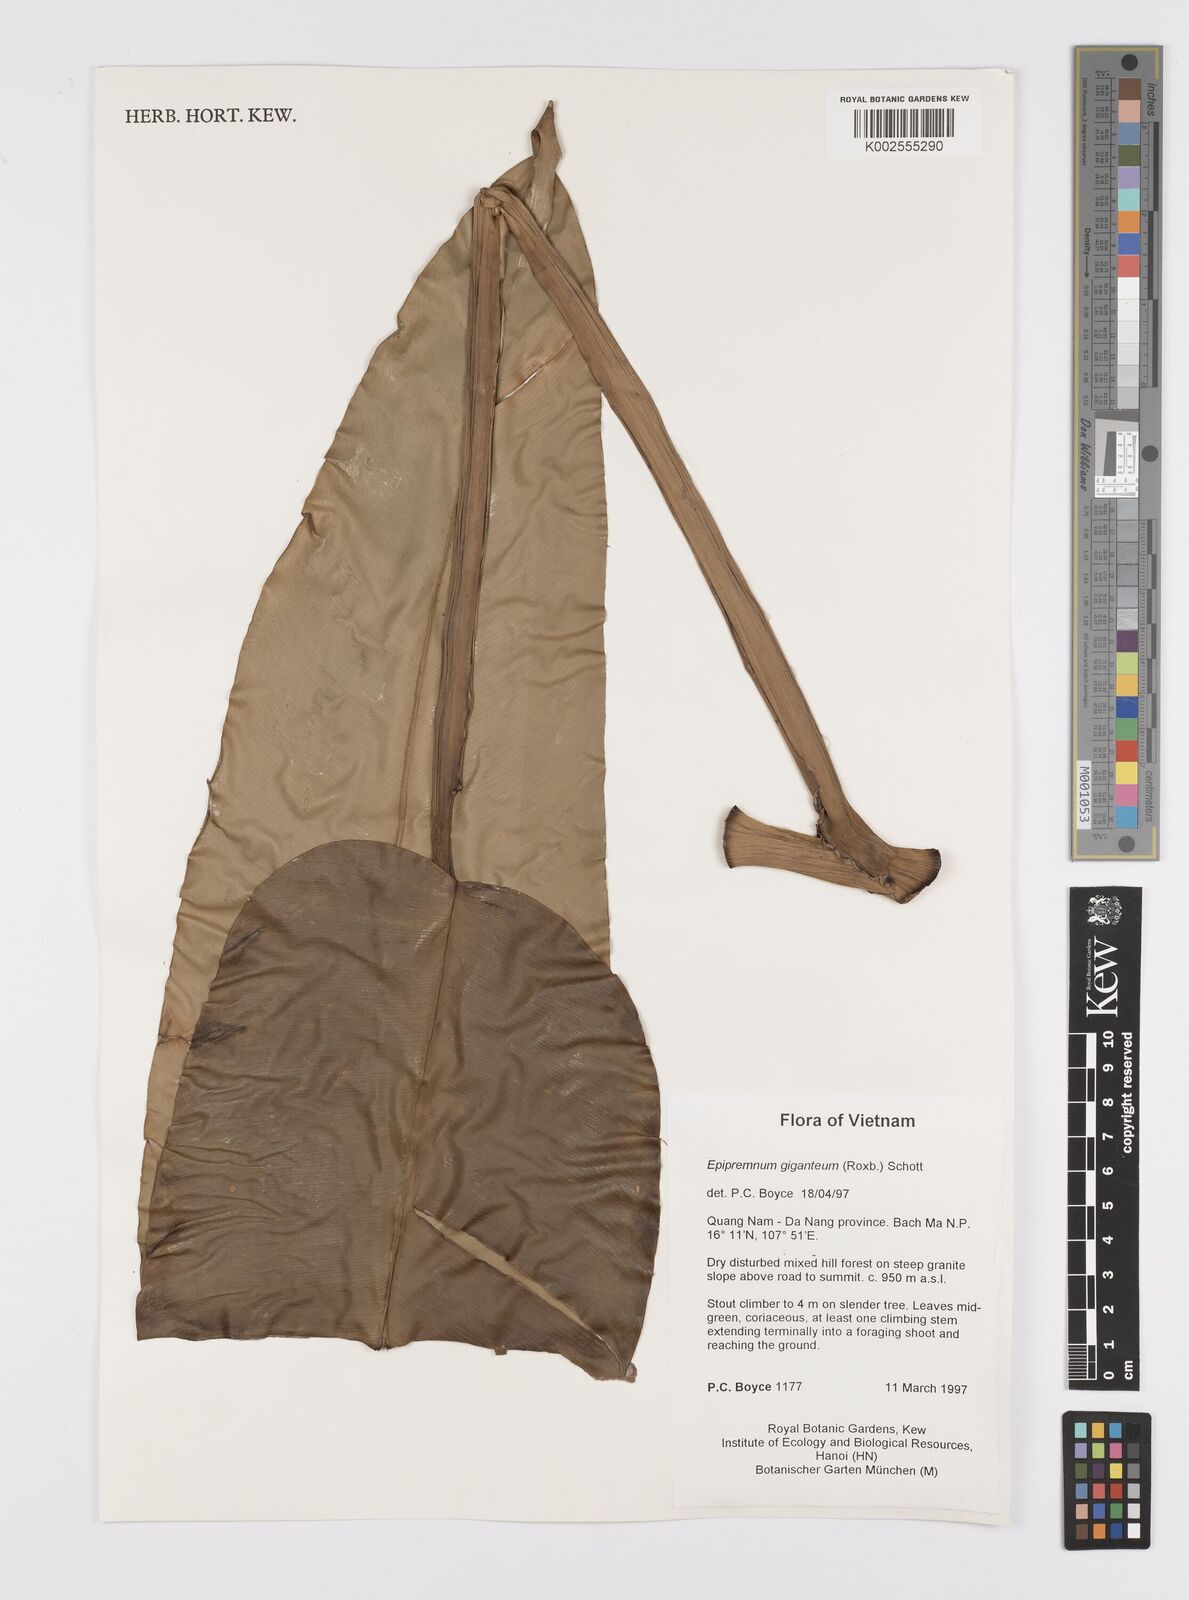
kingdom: Plantae
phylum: Tracheophyta
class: Liliopsida
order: Alismatales
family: Araceae
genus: Epipremnum
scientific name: Epipremnum giganteum
